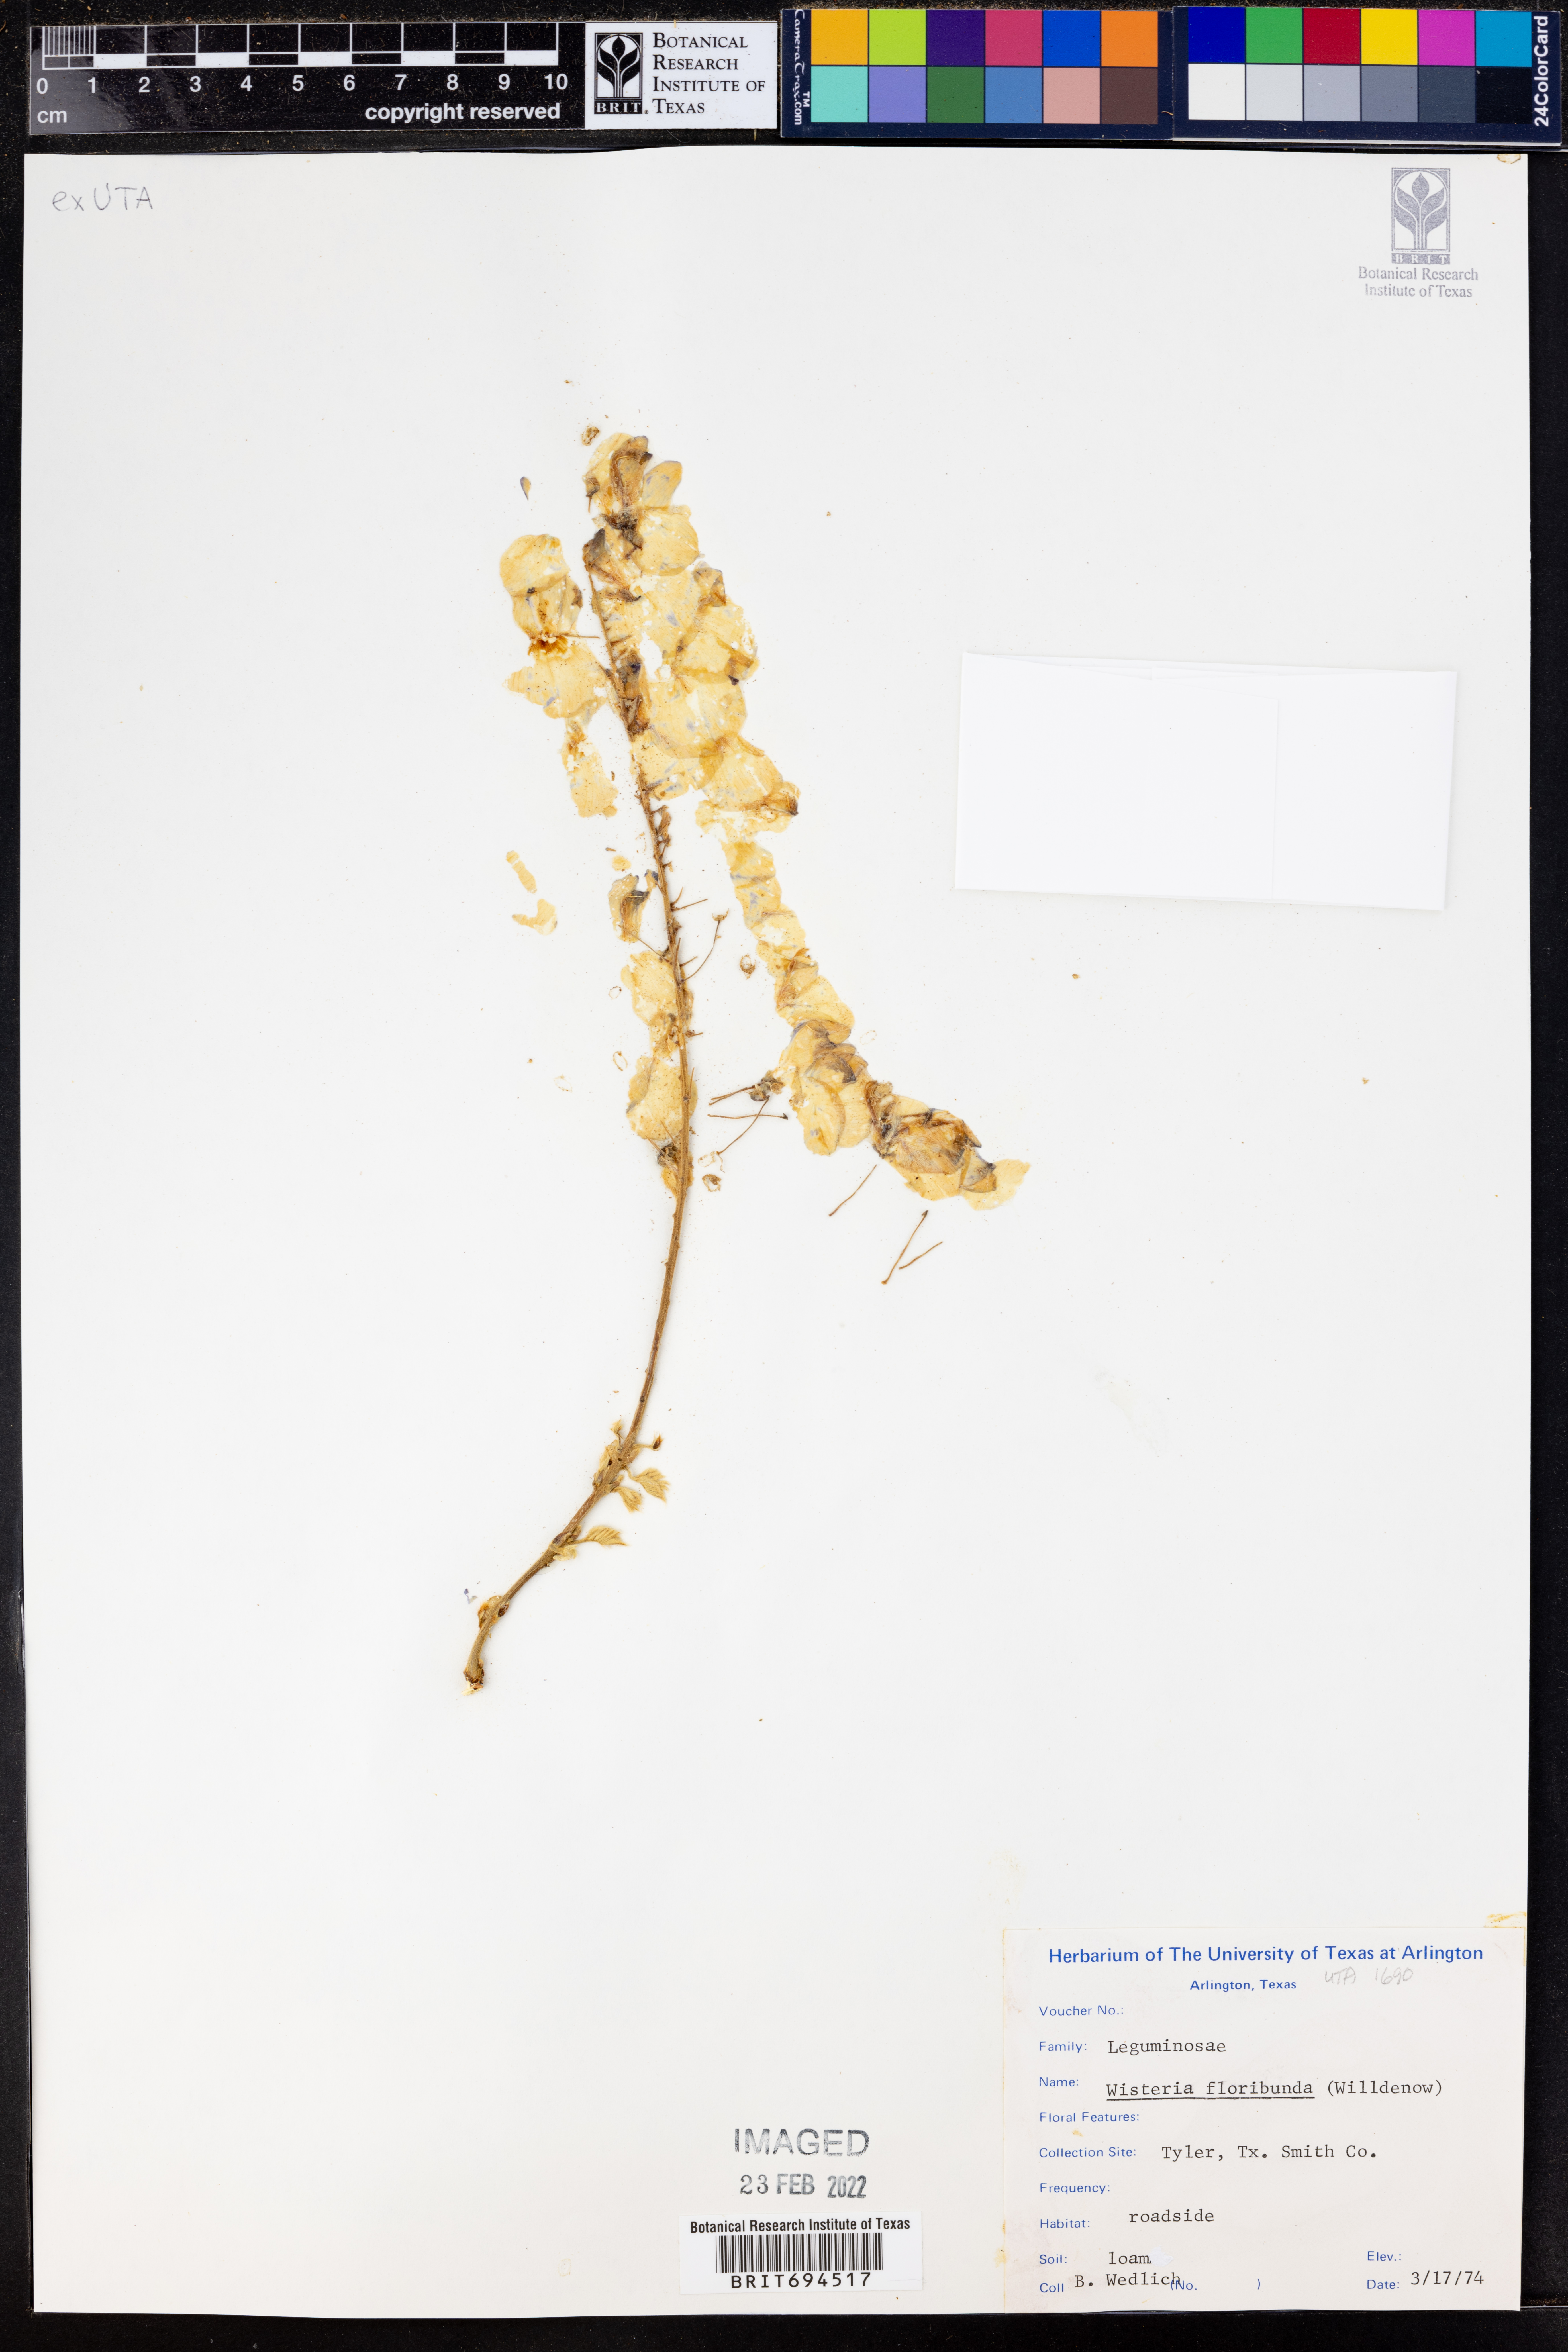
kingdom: Plantae
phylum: Tracheophyta
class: Magnoliopsida
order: Fabales
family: Fabaceae
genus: Wisteria
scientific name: Wisteria floribunda
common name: Japanese wisteria
